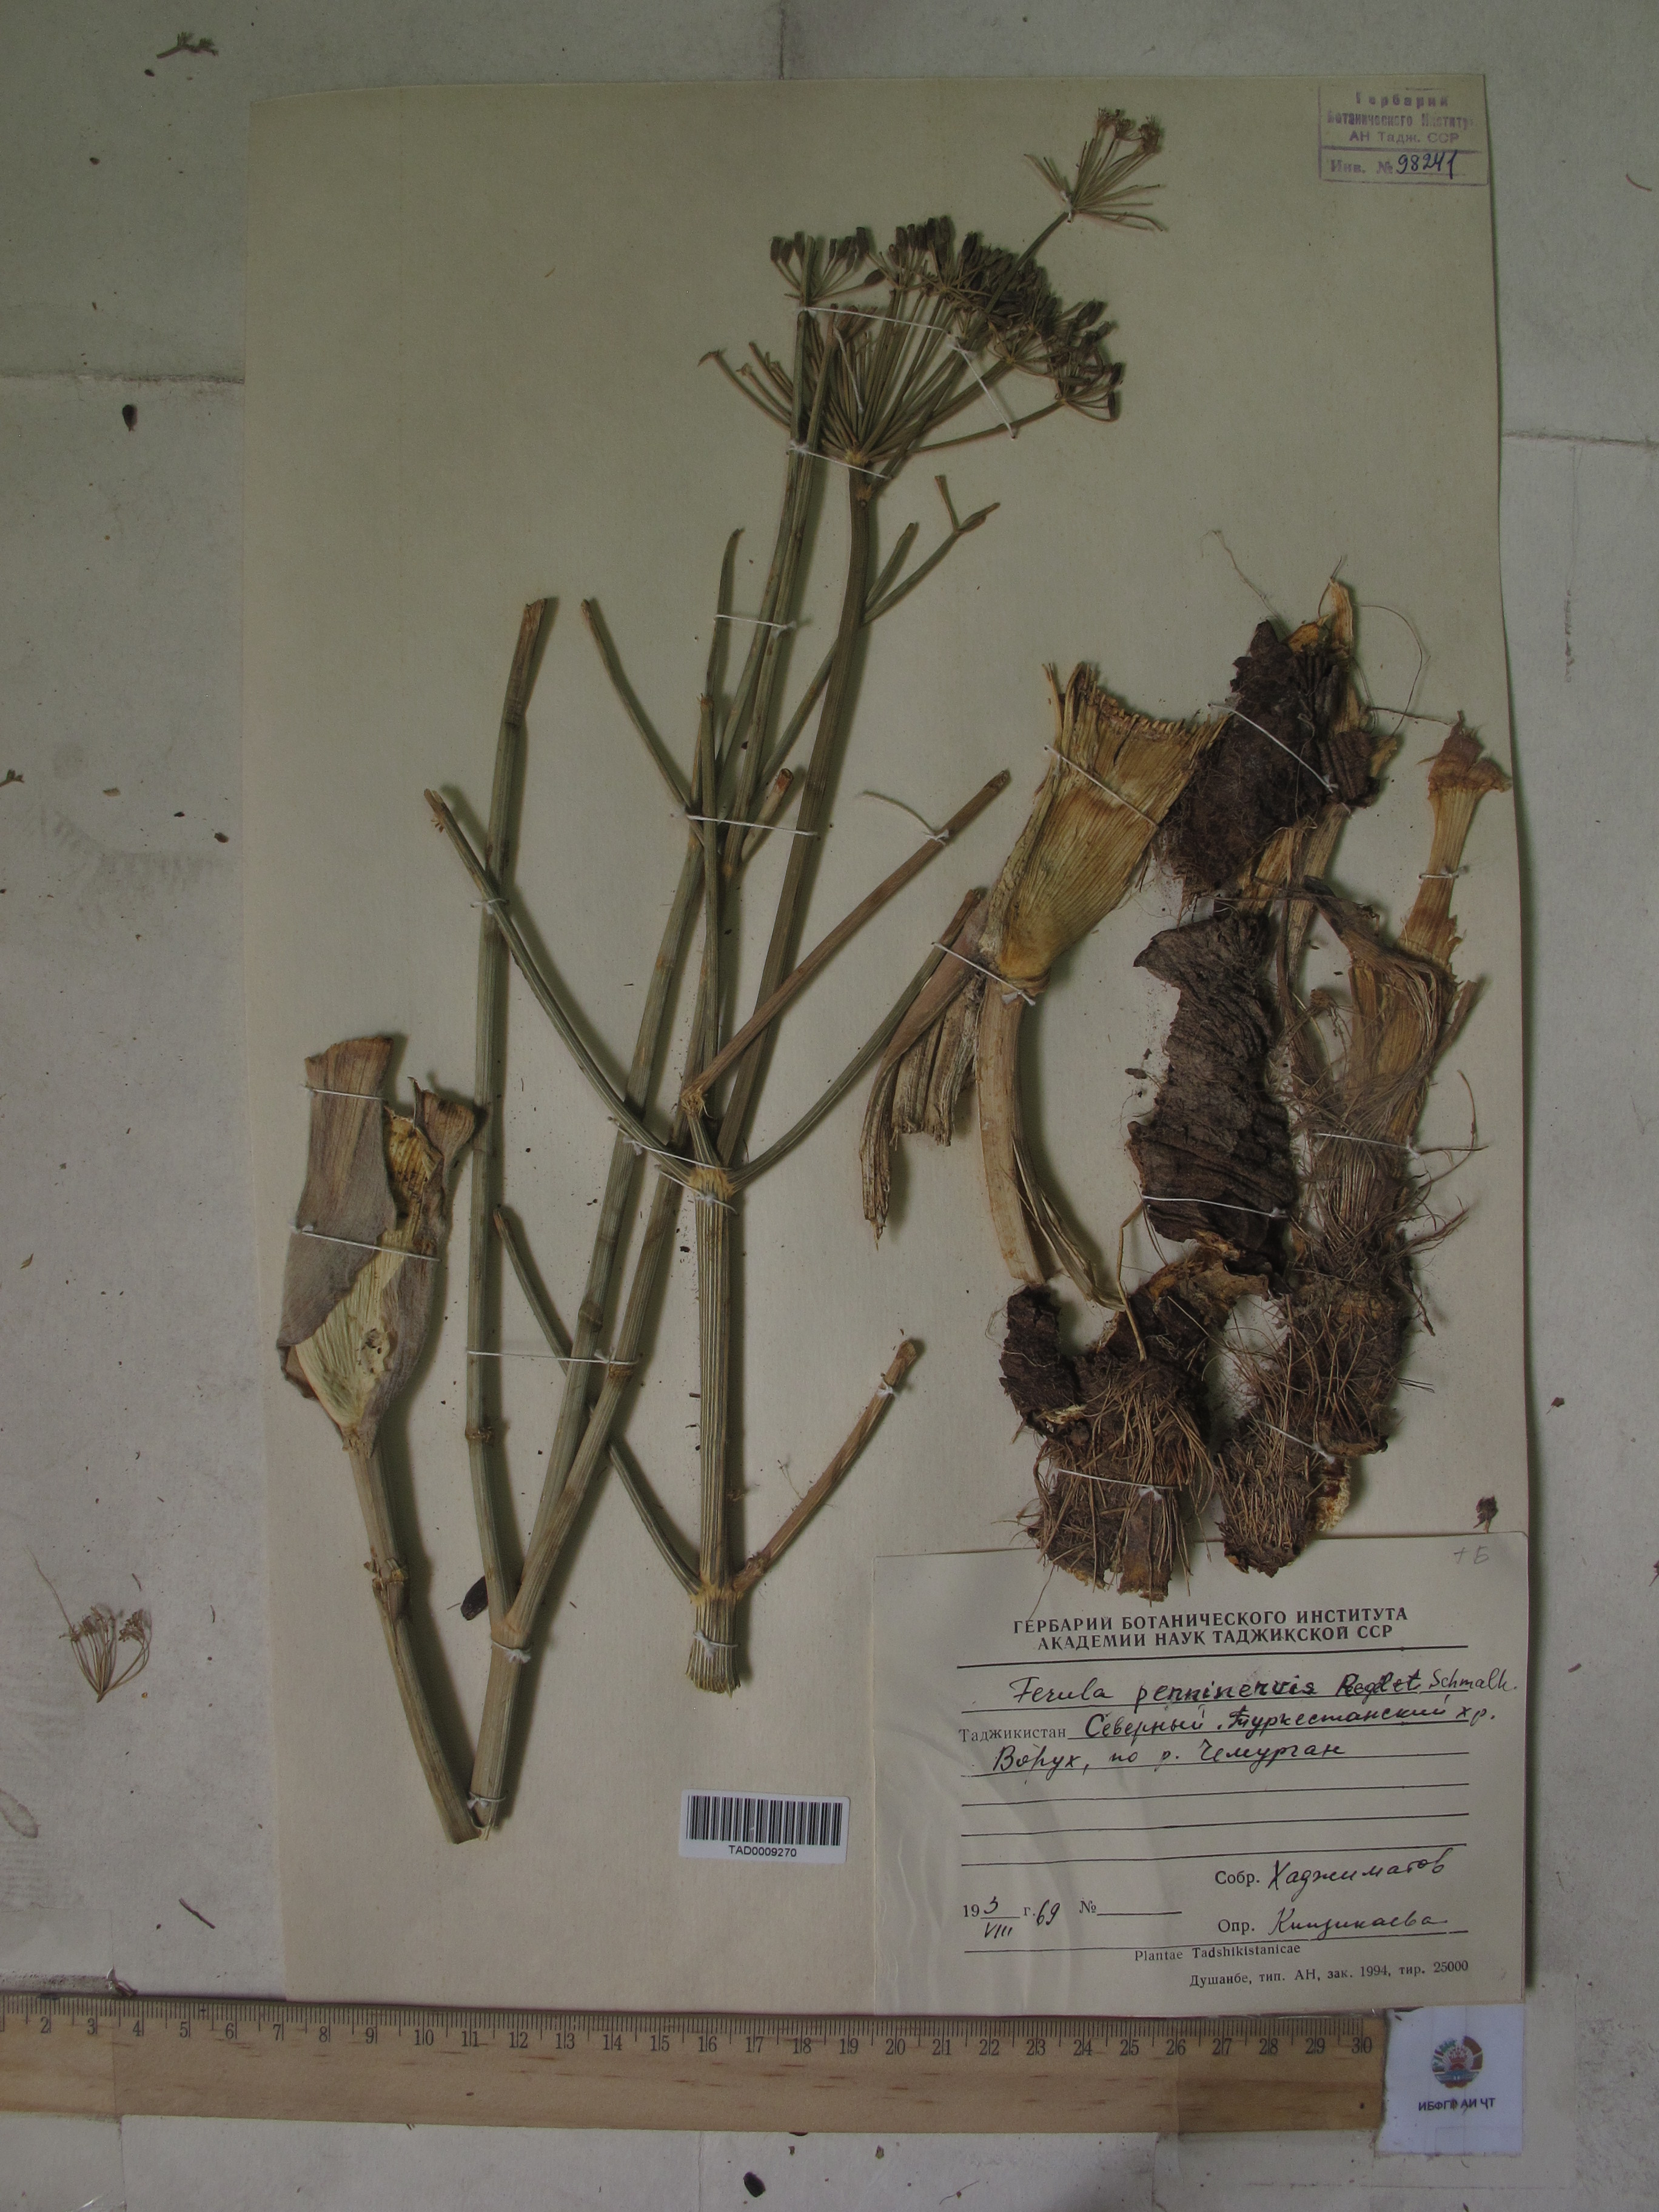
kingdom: Plantae
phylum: Tracheophyta
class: Magnoliopsida
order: Apiales
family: Apiaceae
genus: Ferula
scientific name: Ferula
